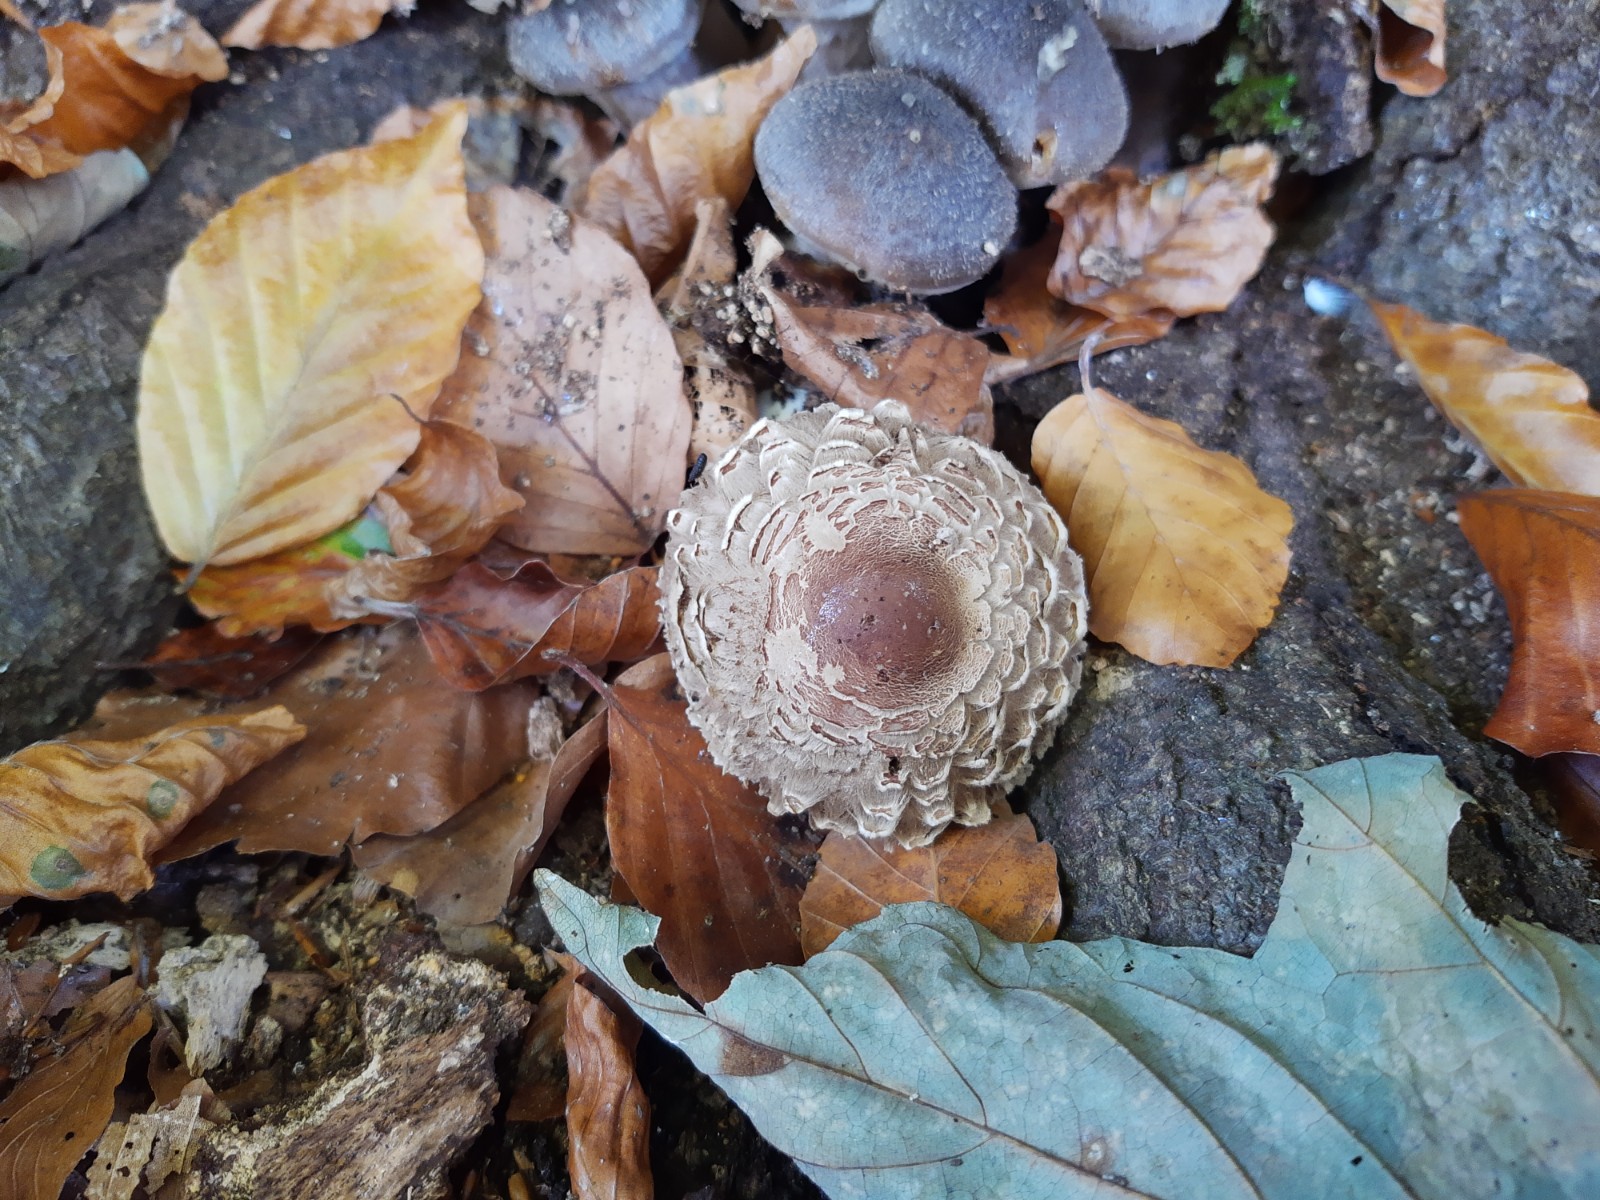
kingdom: Fungi
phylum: Basidiomycota
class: Agaricomycetes
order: Agaricales
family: Agaricaceae
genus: Chlorophyllum
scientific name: Chlorophyllum olivieri
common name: almindelig rabarberhat
